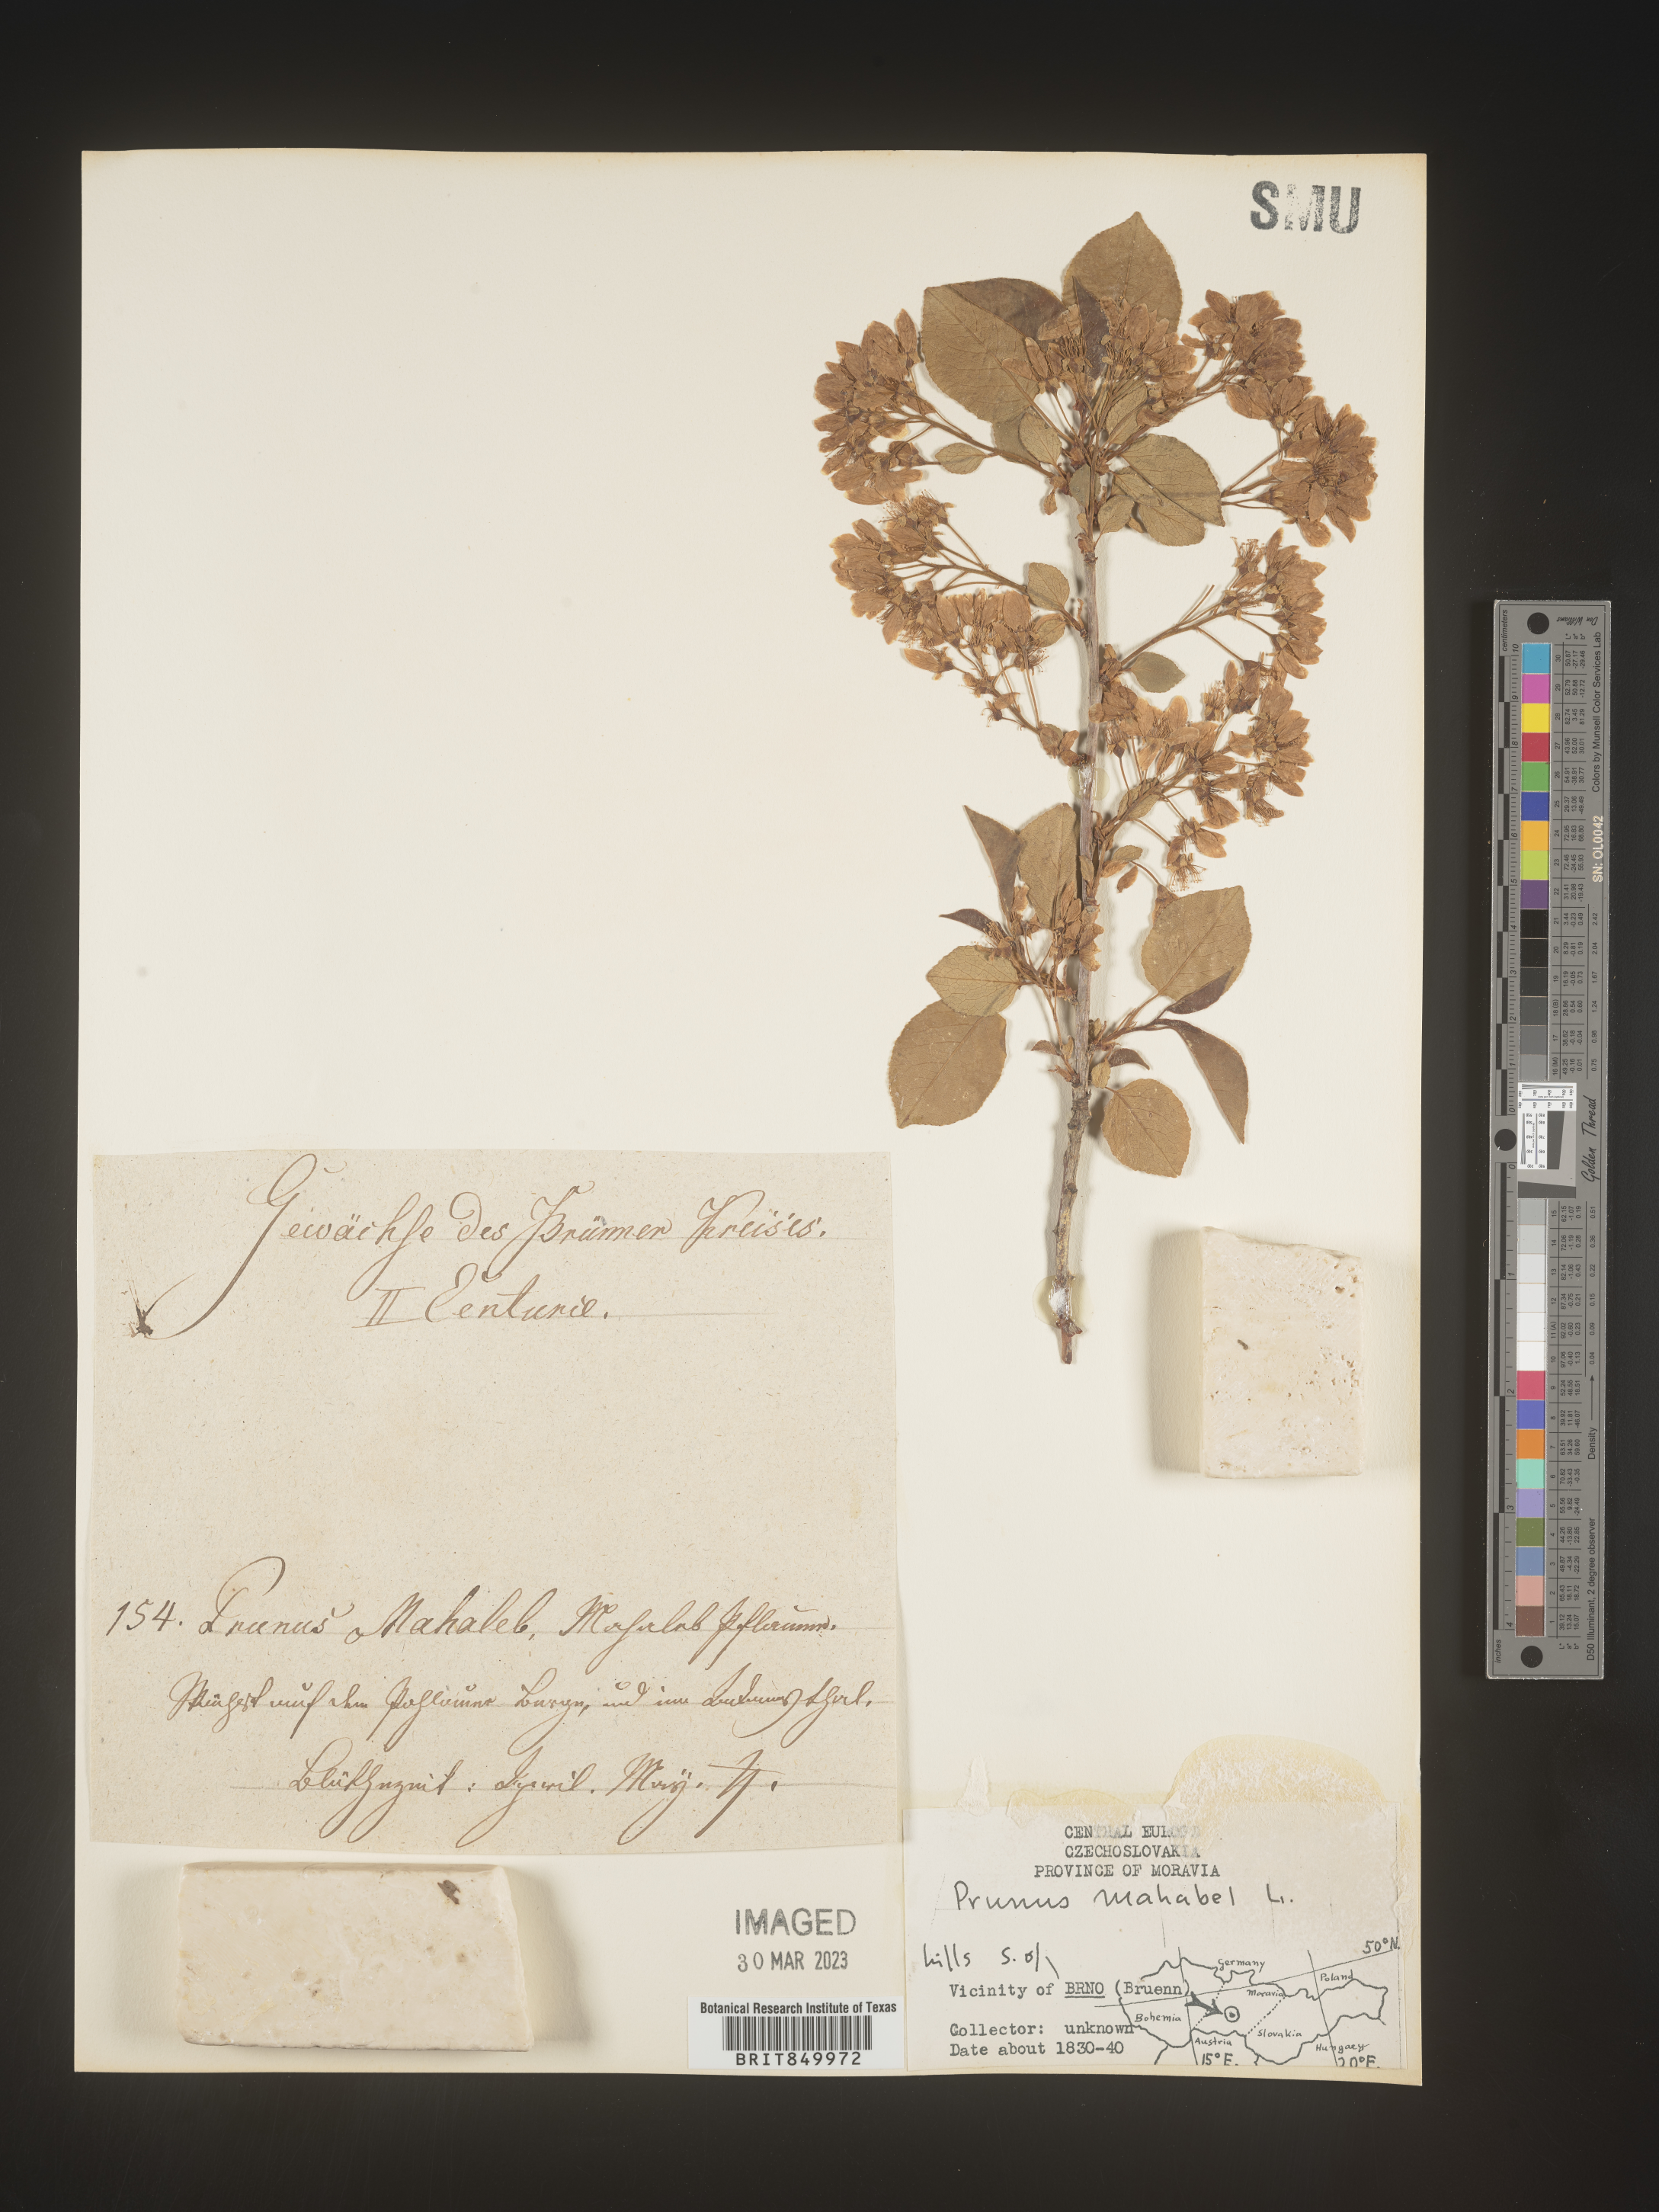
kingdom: Plantae
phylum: Tracheophyta
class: Magnoliopsida
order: Rosales
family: Rosaceae
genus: Prunus
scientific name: Prunus
